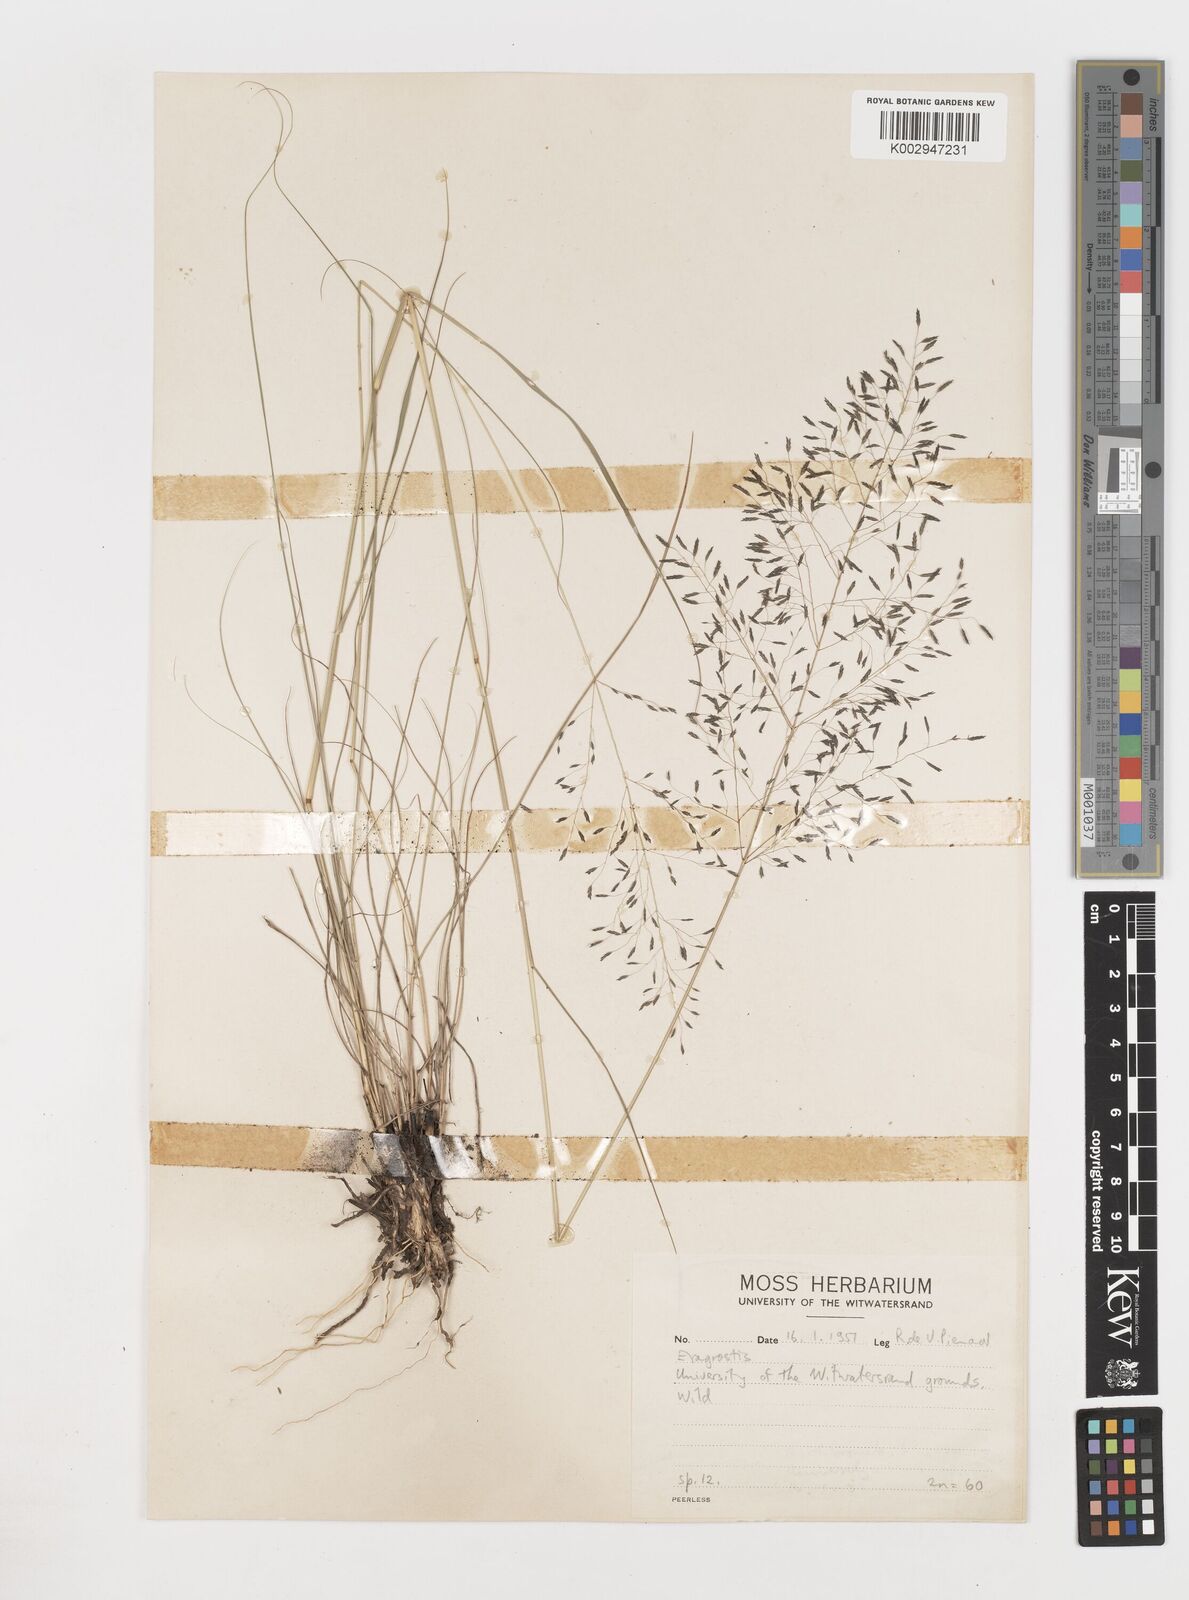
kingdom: Plantae
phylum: Tracheophyta
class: Liliopsida
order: Poales
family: Poaceae
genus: Eragrostis
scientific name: Eragrostis
